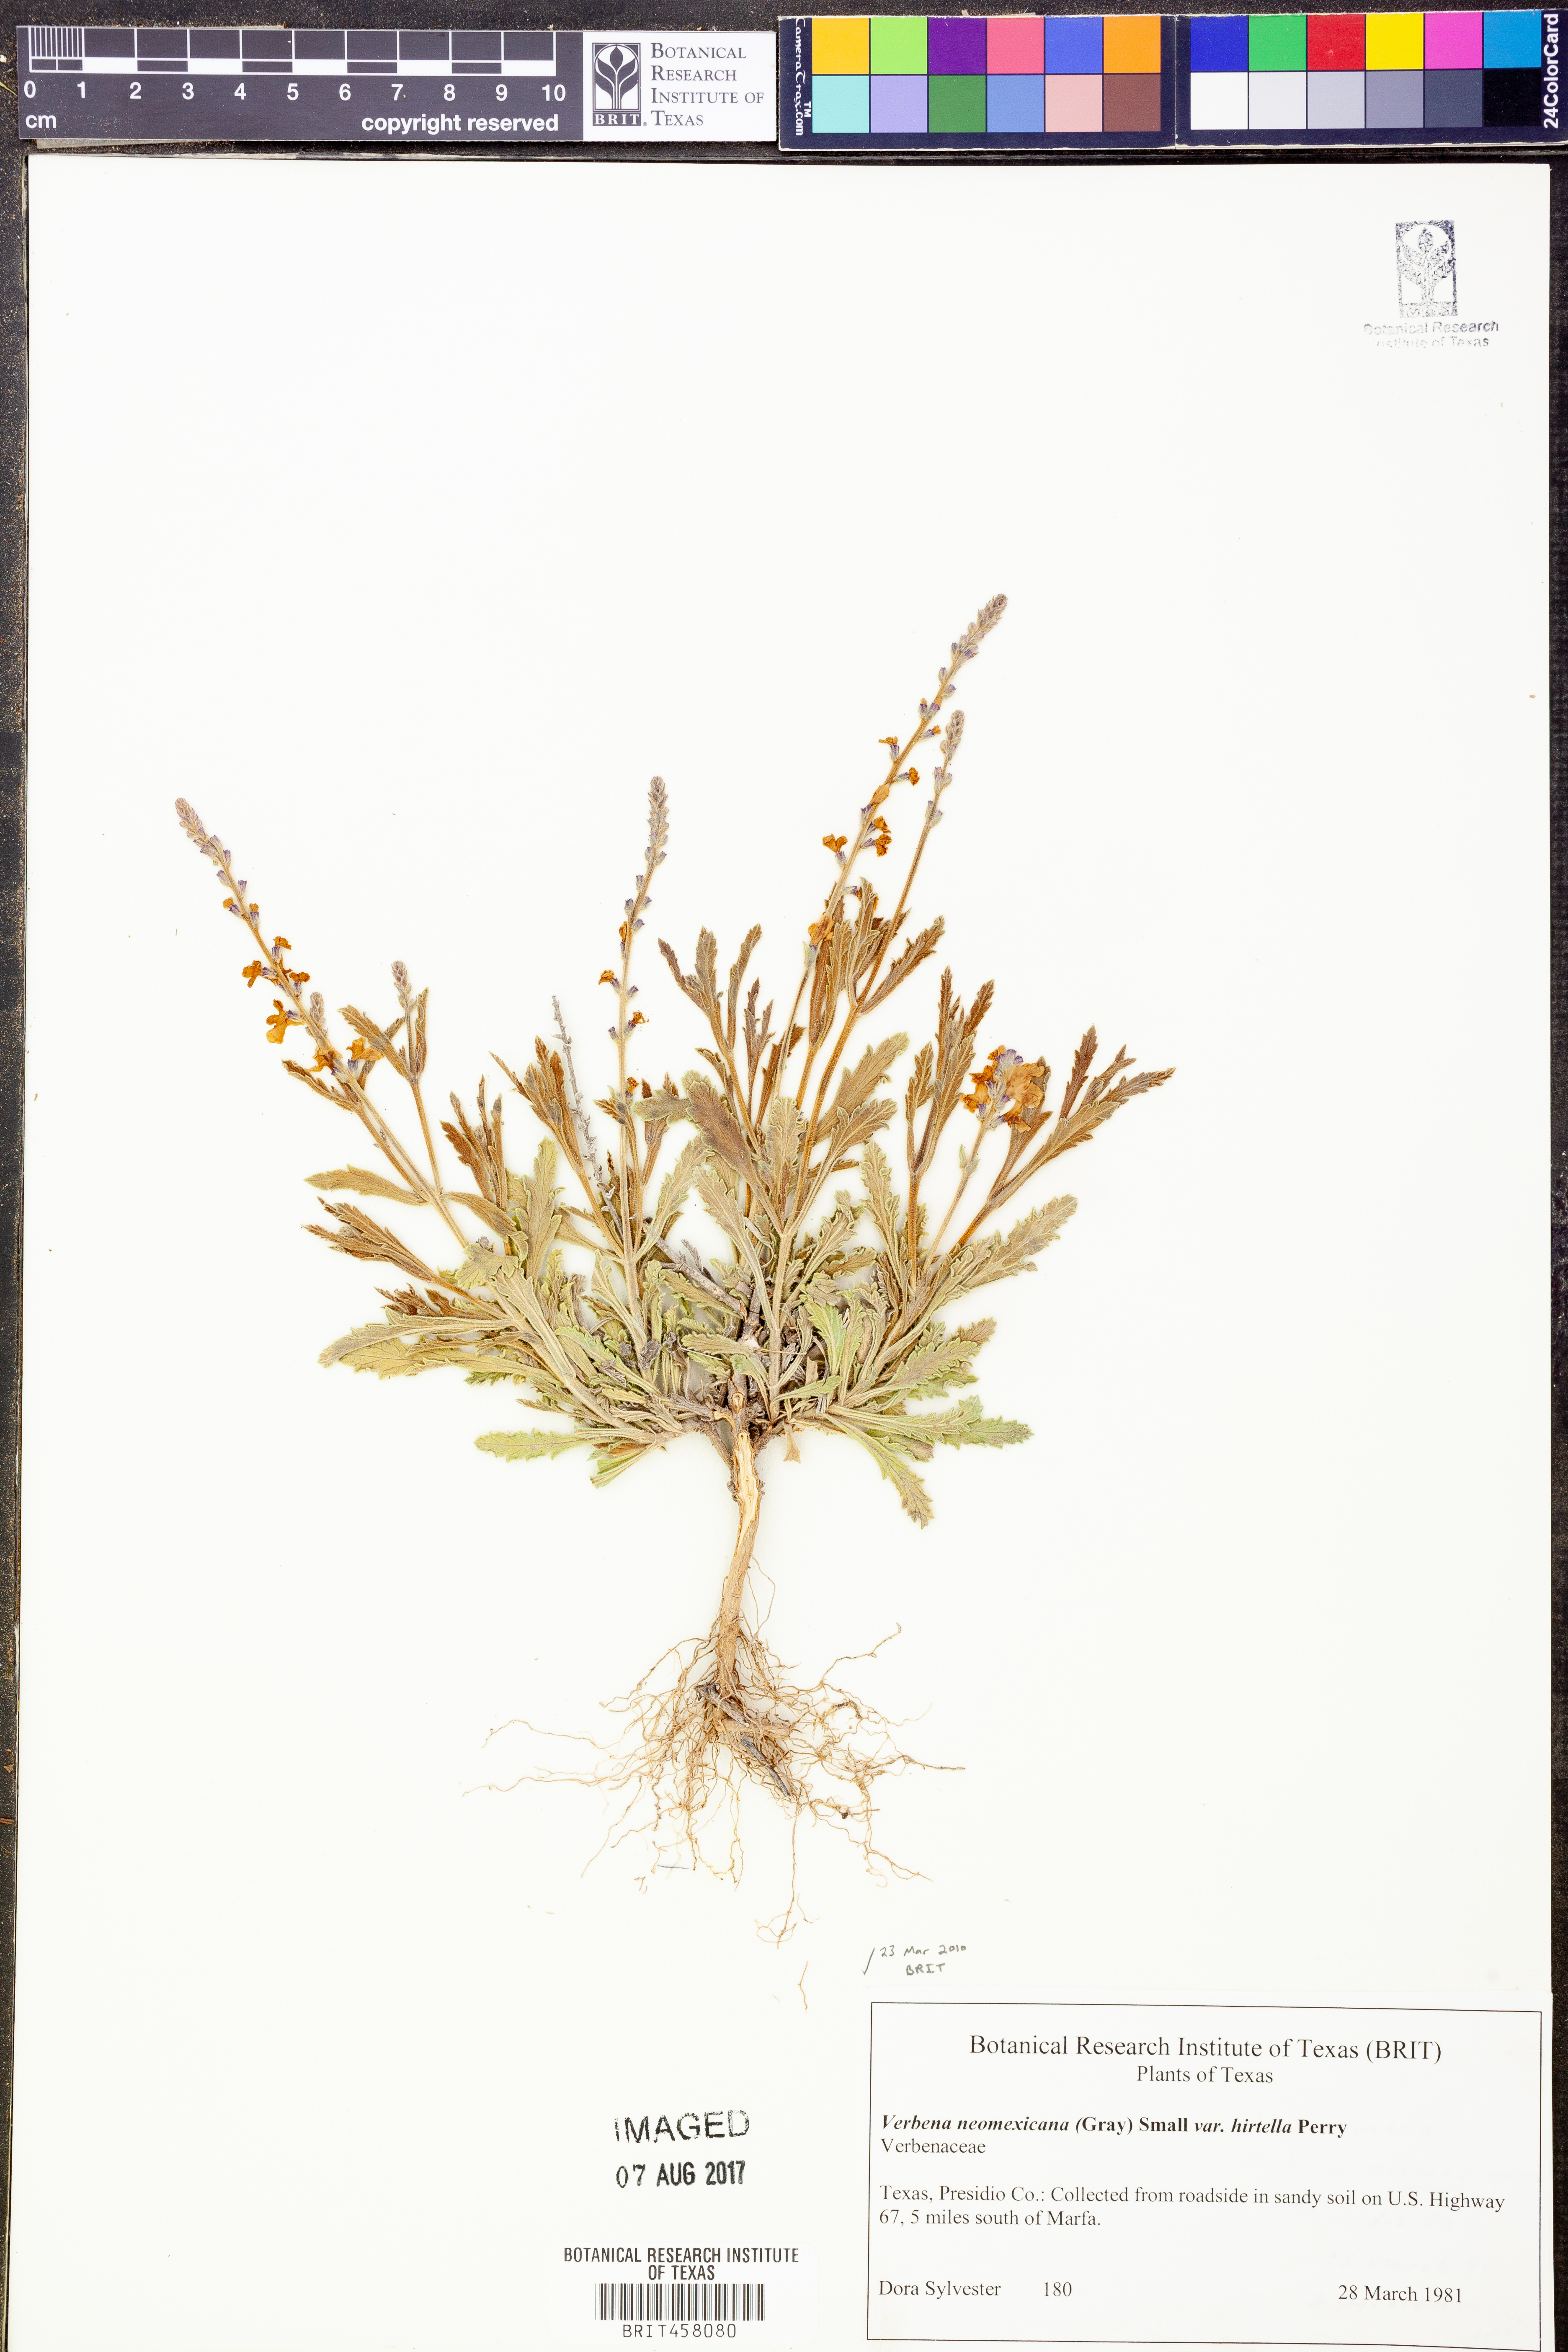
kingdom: Plantae
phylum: Tracheophyta
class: Magnoliopsida
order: Lamiales
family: Verbenaceae
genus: Verbena
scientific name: Verbena neomexicana
